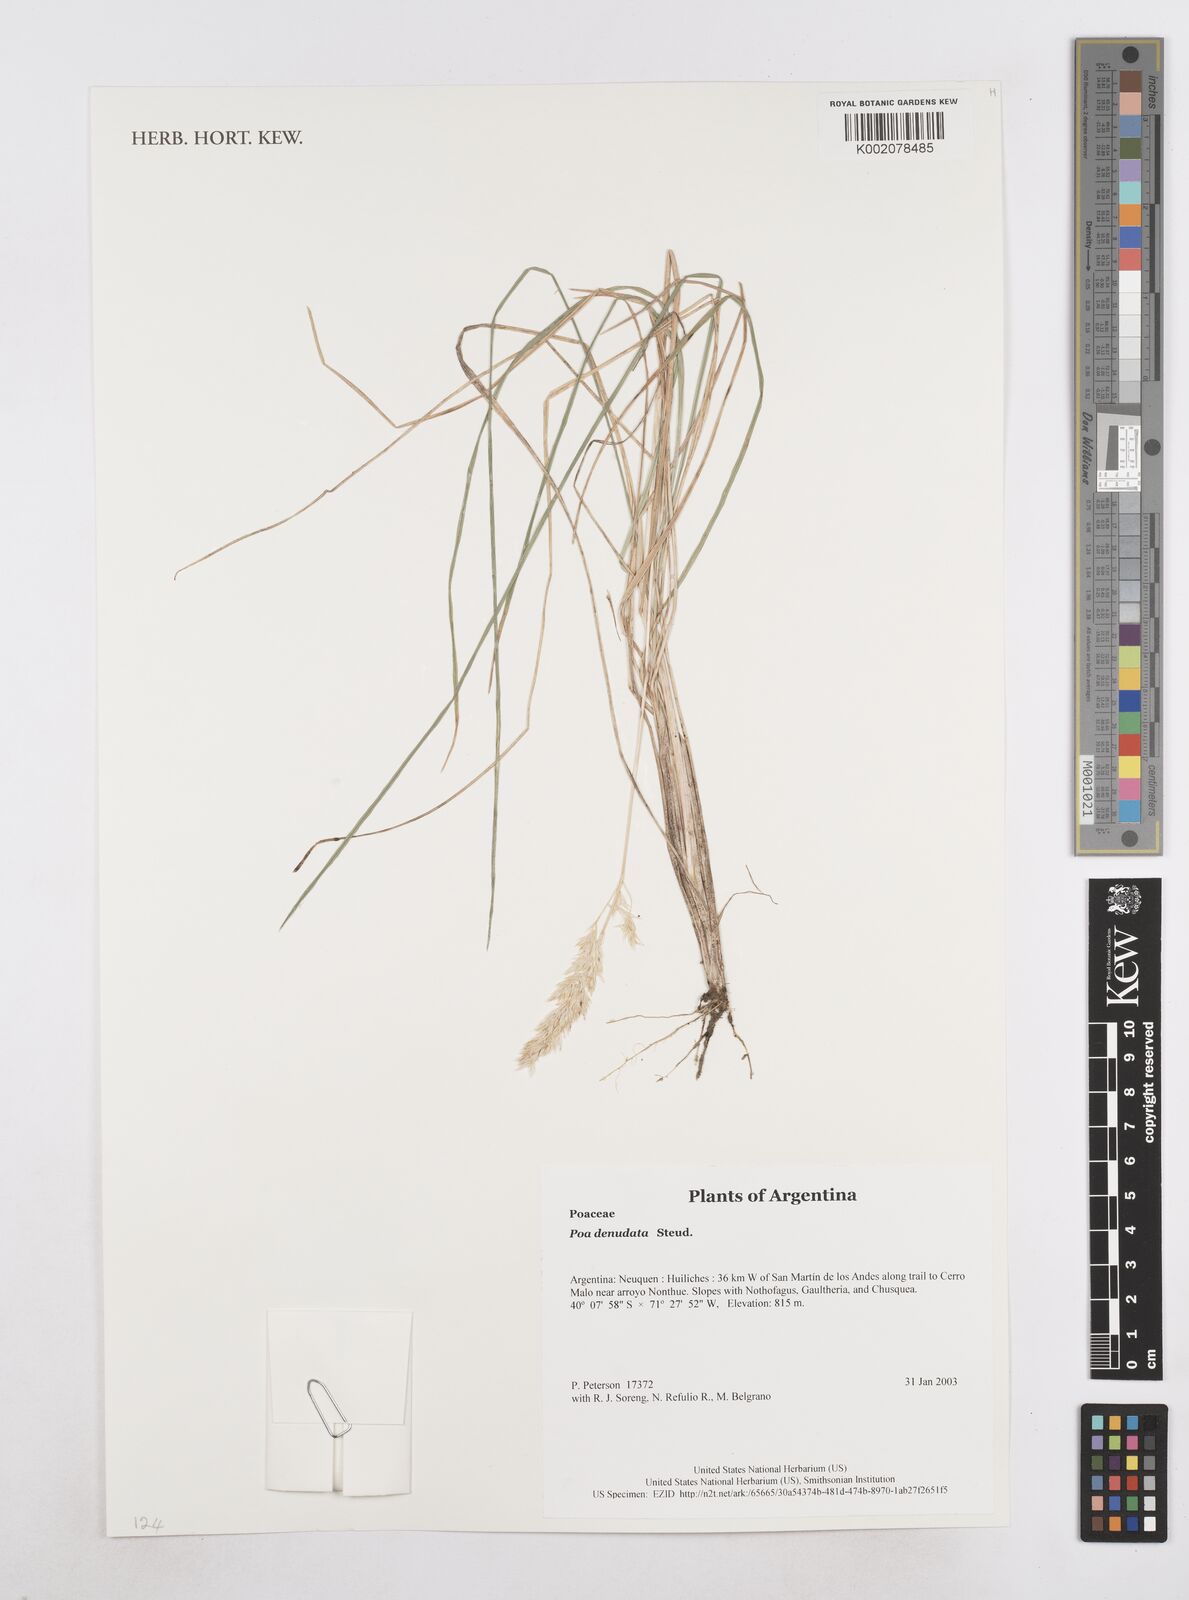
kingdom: Plantae
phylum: Tracheophyta
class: Liliopsida
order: Poales
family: Poaceae
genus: Poa
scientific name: Poa denudata
